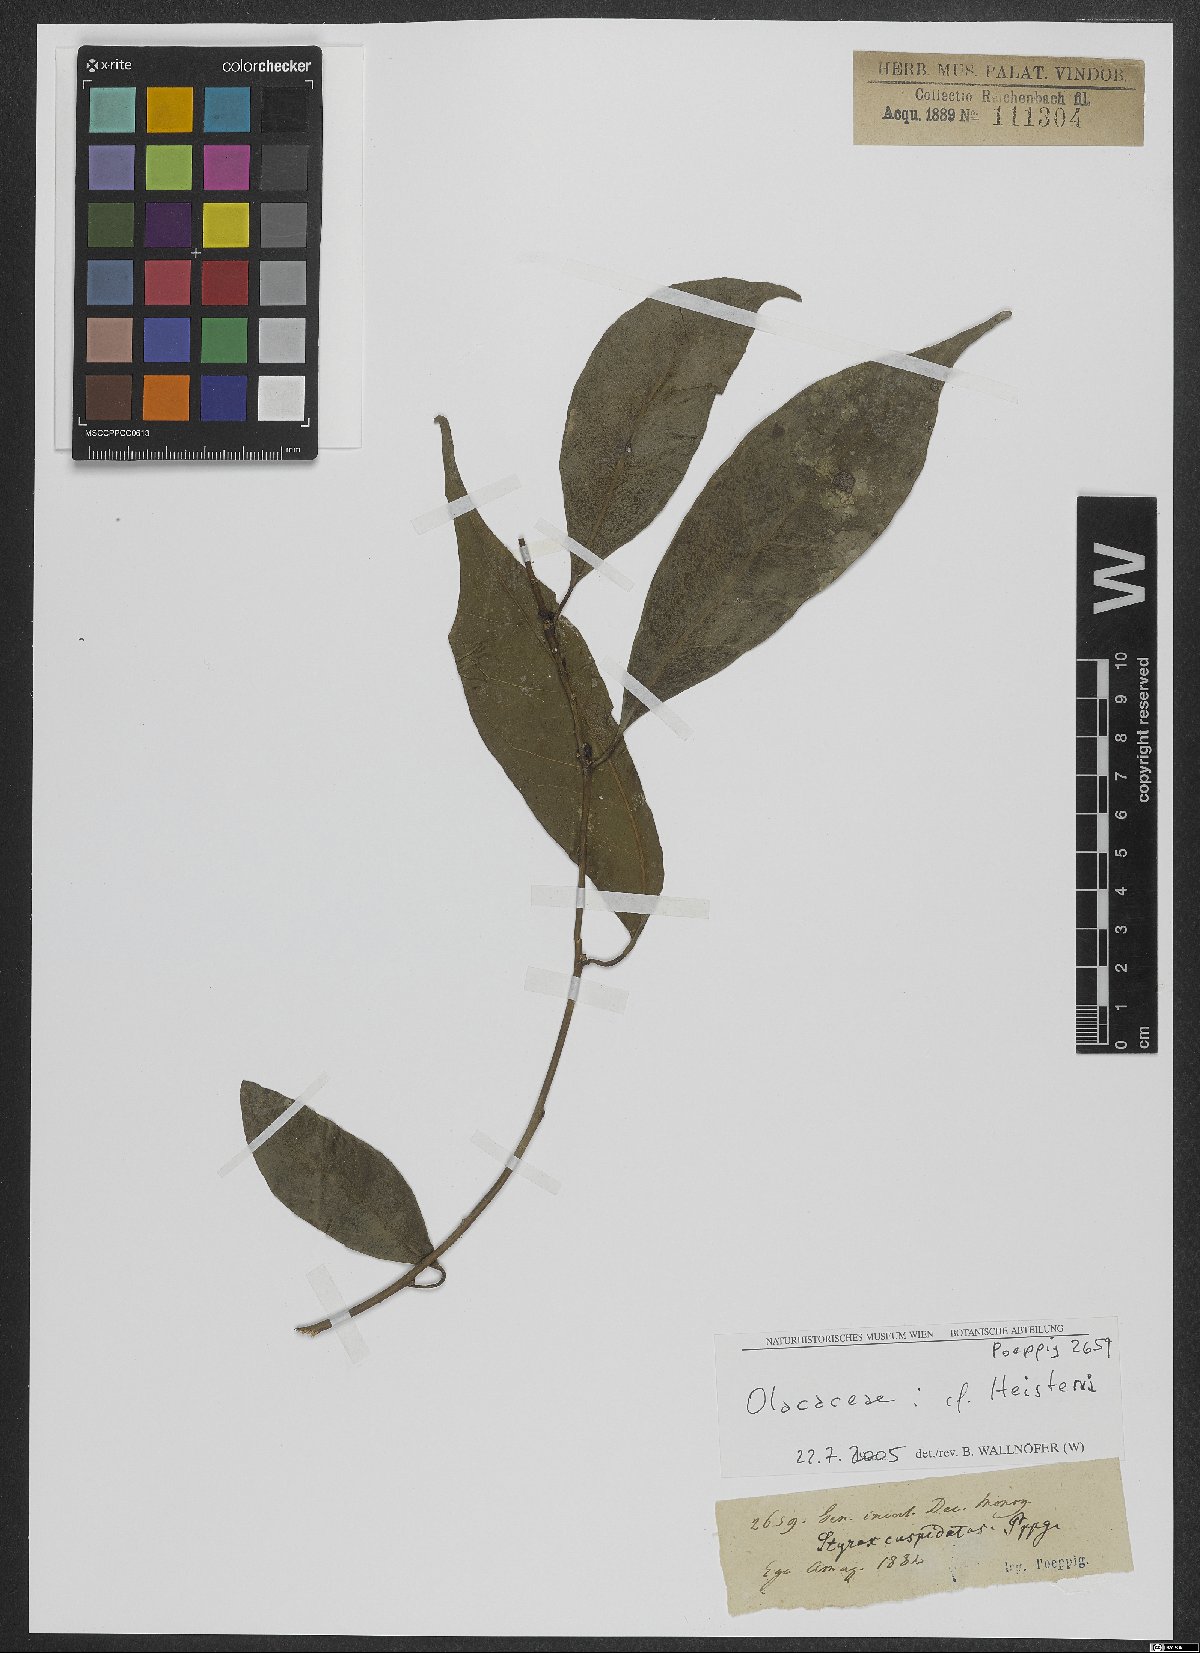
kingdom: Plantae
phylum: Tracheophyta
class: Magnoliopsida
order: Santalales
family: Erythropalaceae
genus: Heisteria
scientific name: Heisteria
